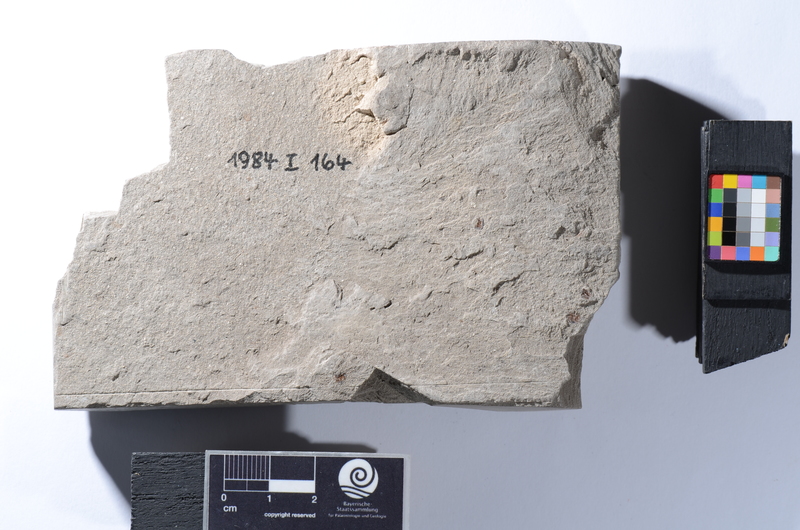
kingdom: Animalia
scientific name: Animalia
